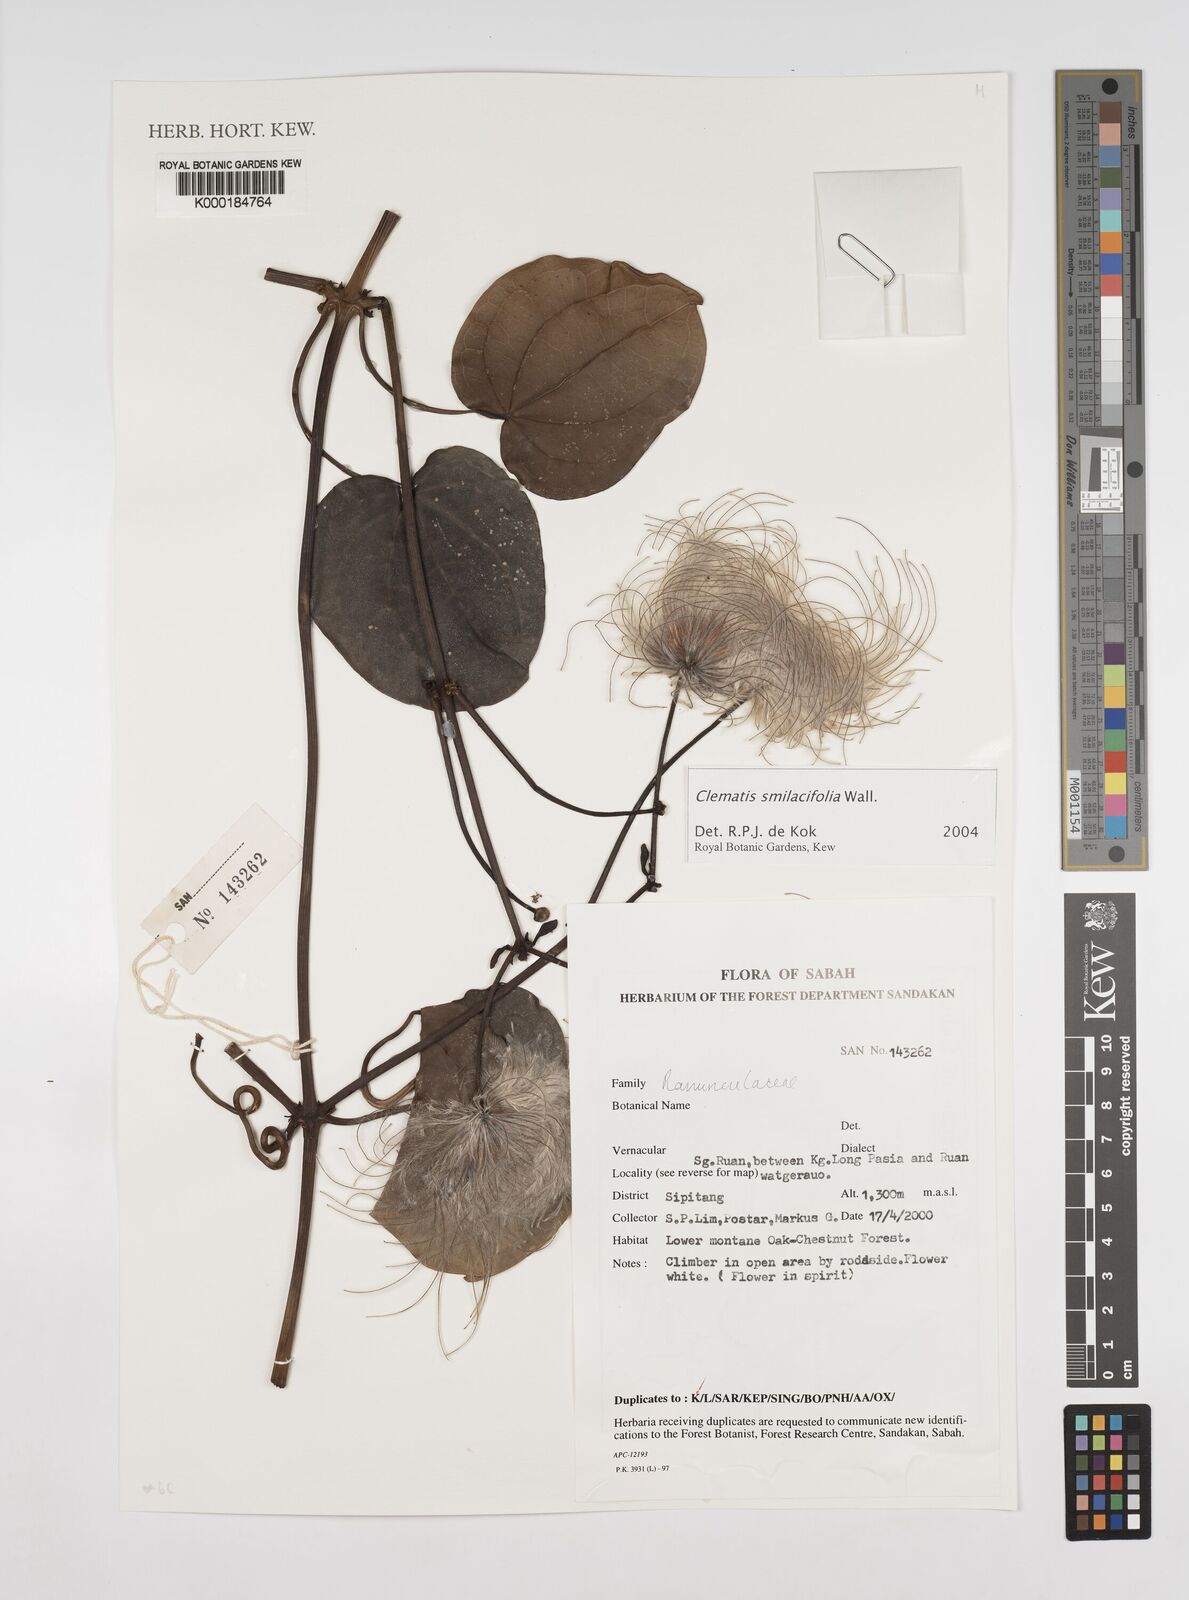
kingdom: Plantae
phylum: Tracheophyta
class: Magnoliopsida
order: Ranunculales
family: Ranunculaceae
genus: Clematis
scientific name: Clematis smilacifolia
